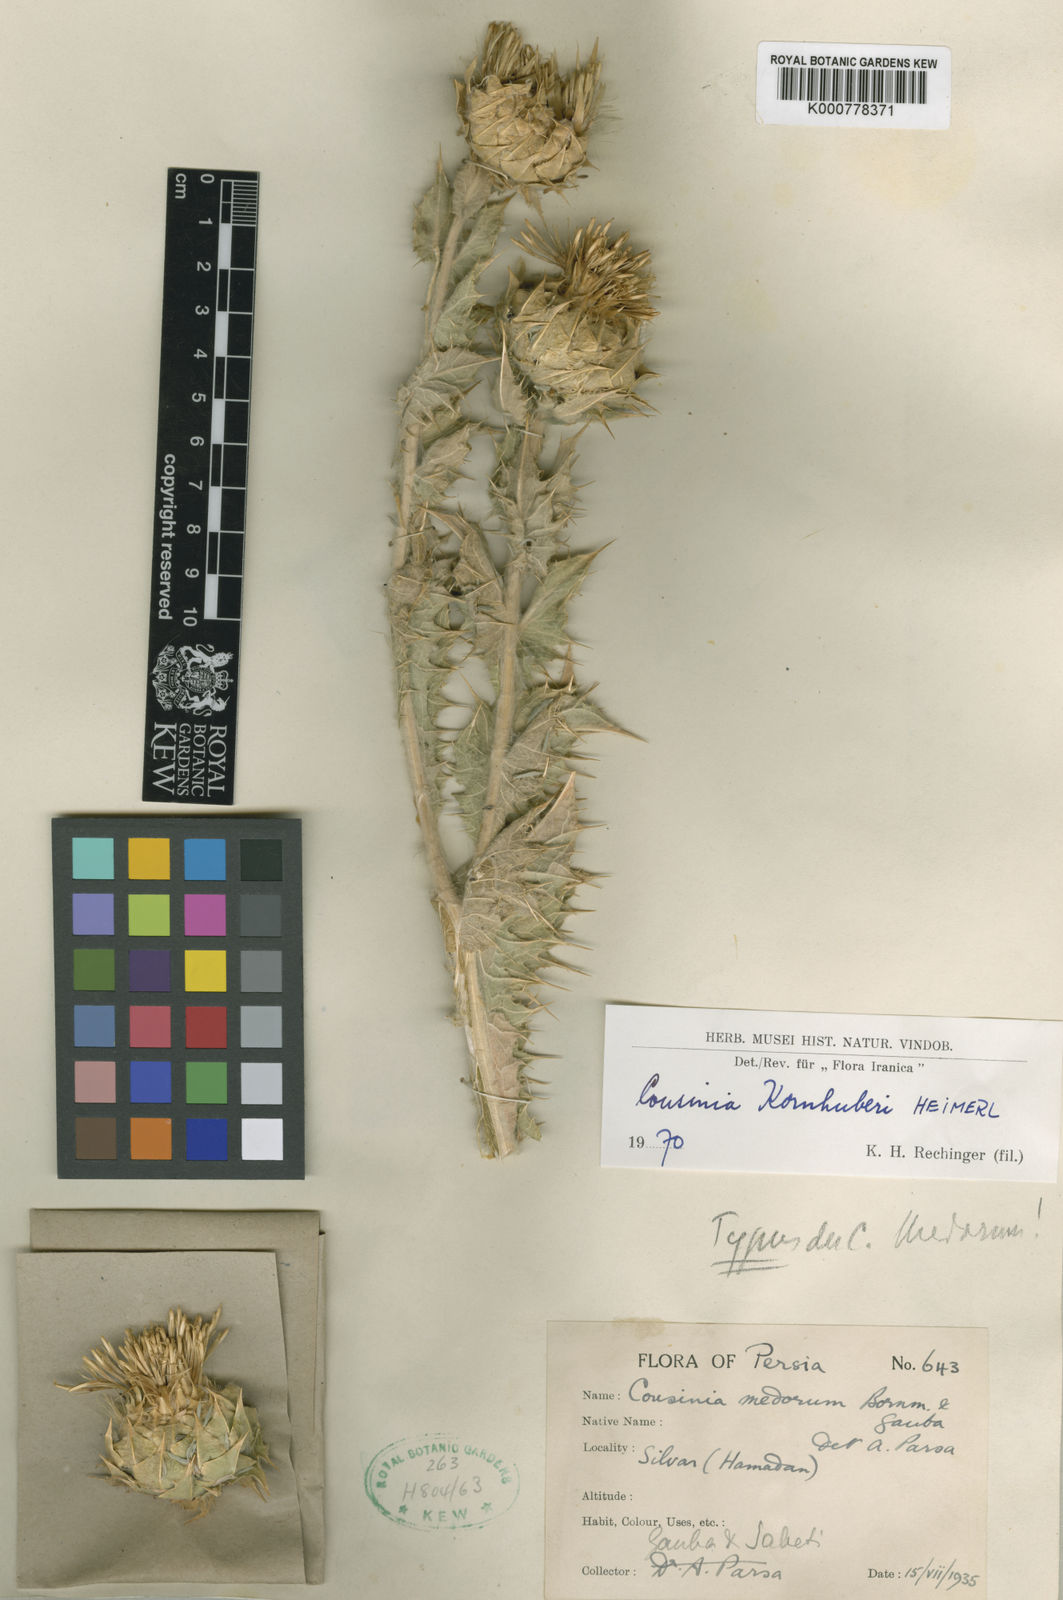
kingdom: Plantae
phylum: Tracheophyta
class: Magnoliopsida
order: Asterales
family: Asteraceae
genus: Cousinia
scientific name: Cousinia kornhuberi
